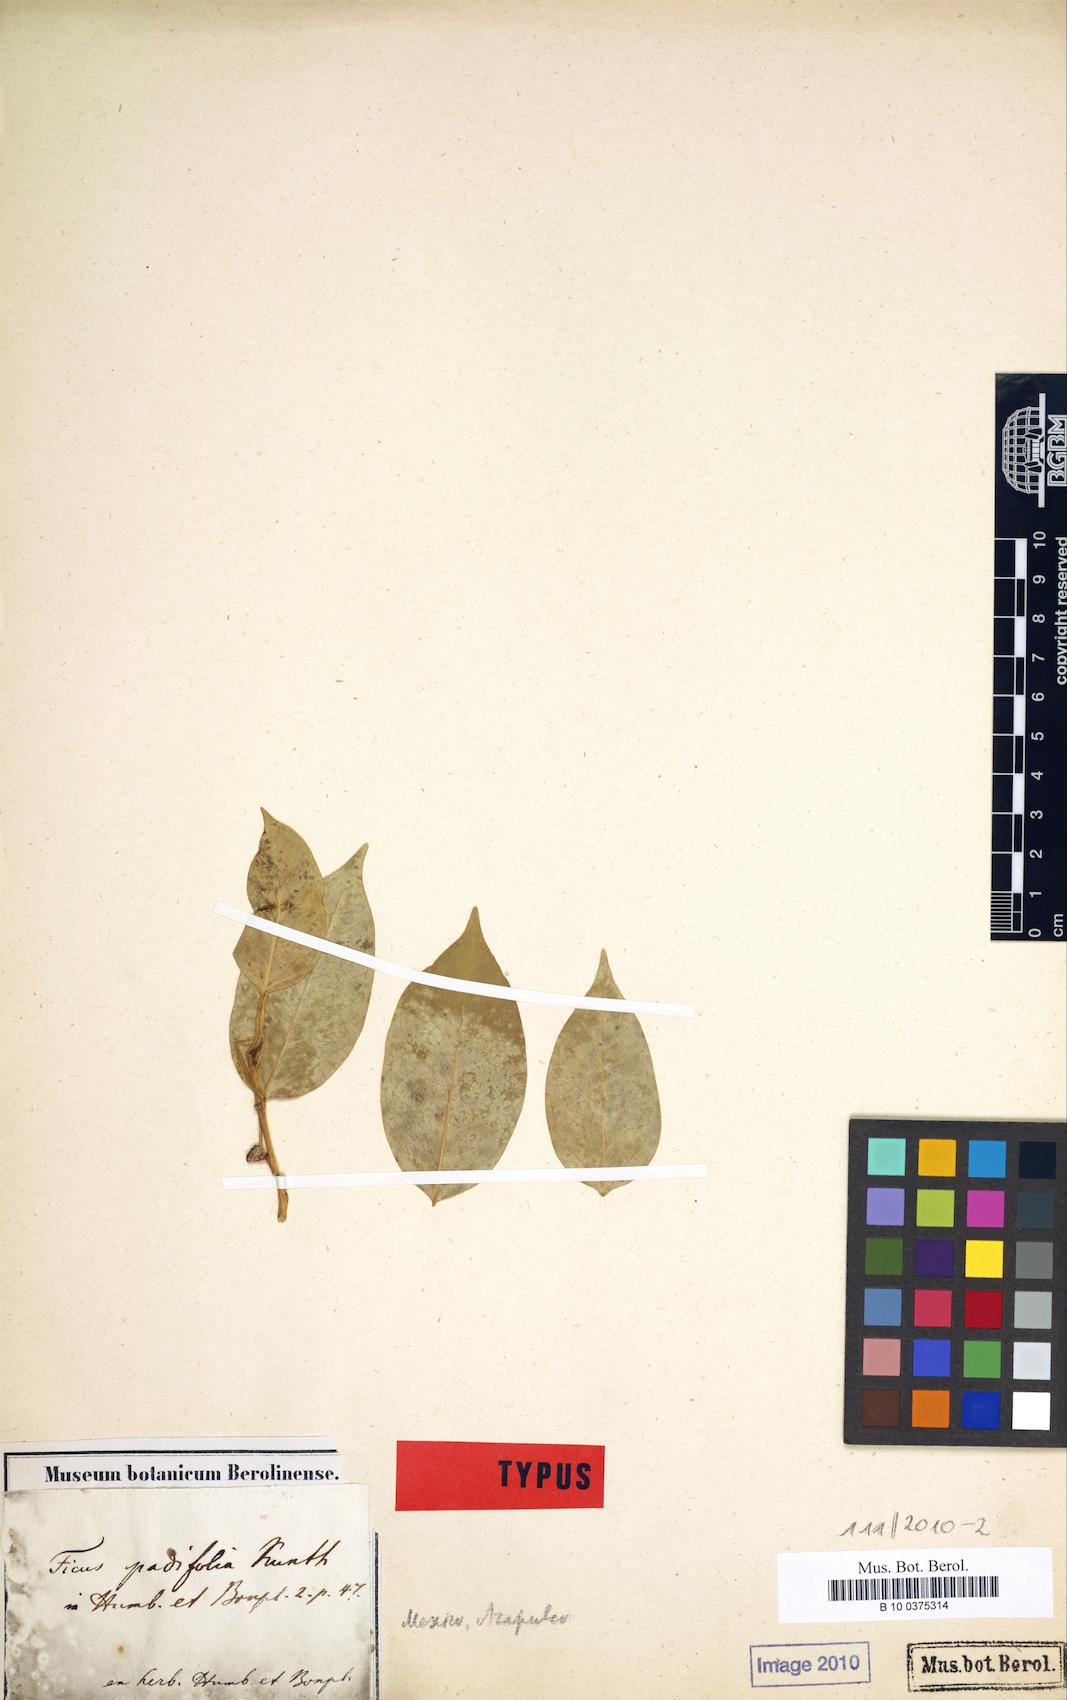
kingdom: Plantae
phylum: Tracheophyta
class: Magnoliopsida
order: Rosales
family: Moraceae
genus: Ficus
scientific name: Ficus pertusa
